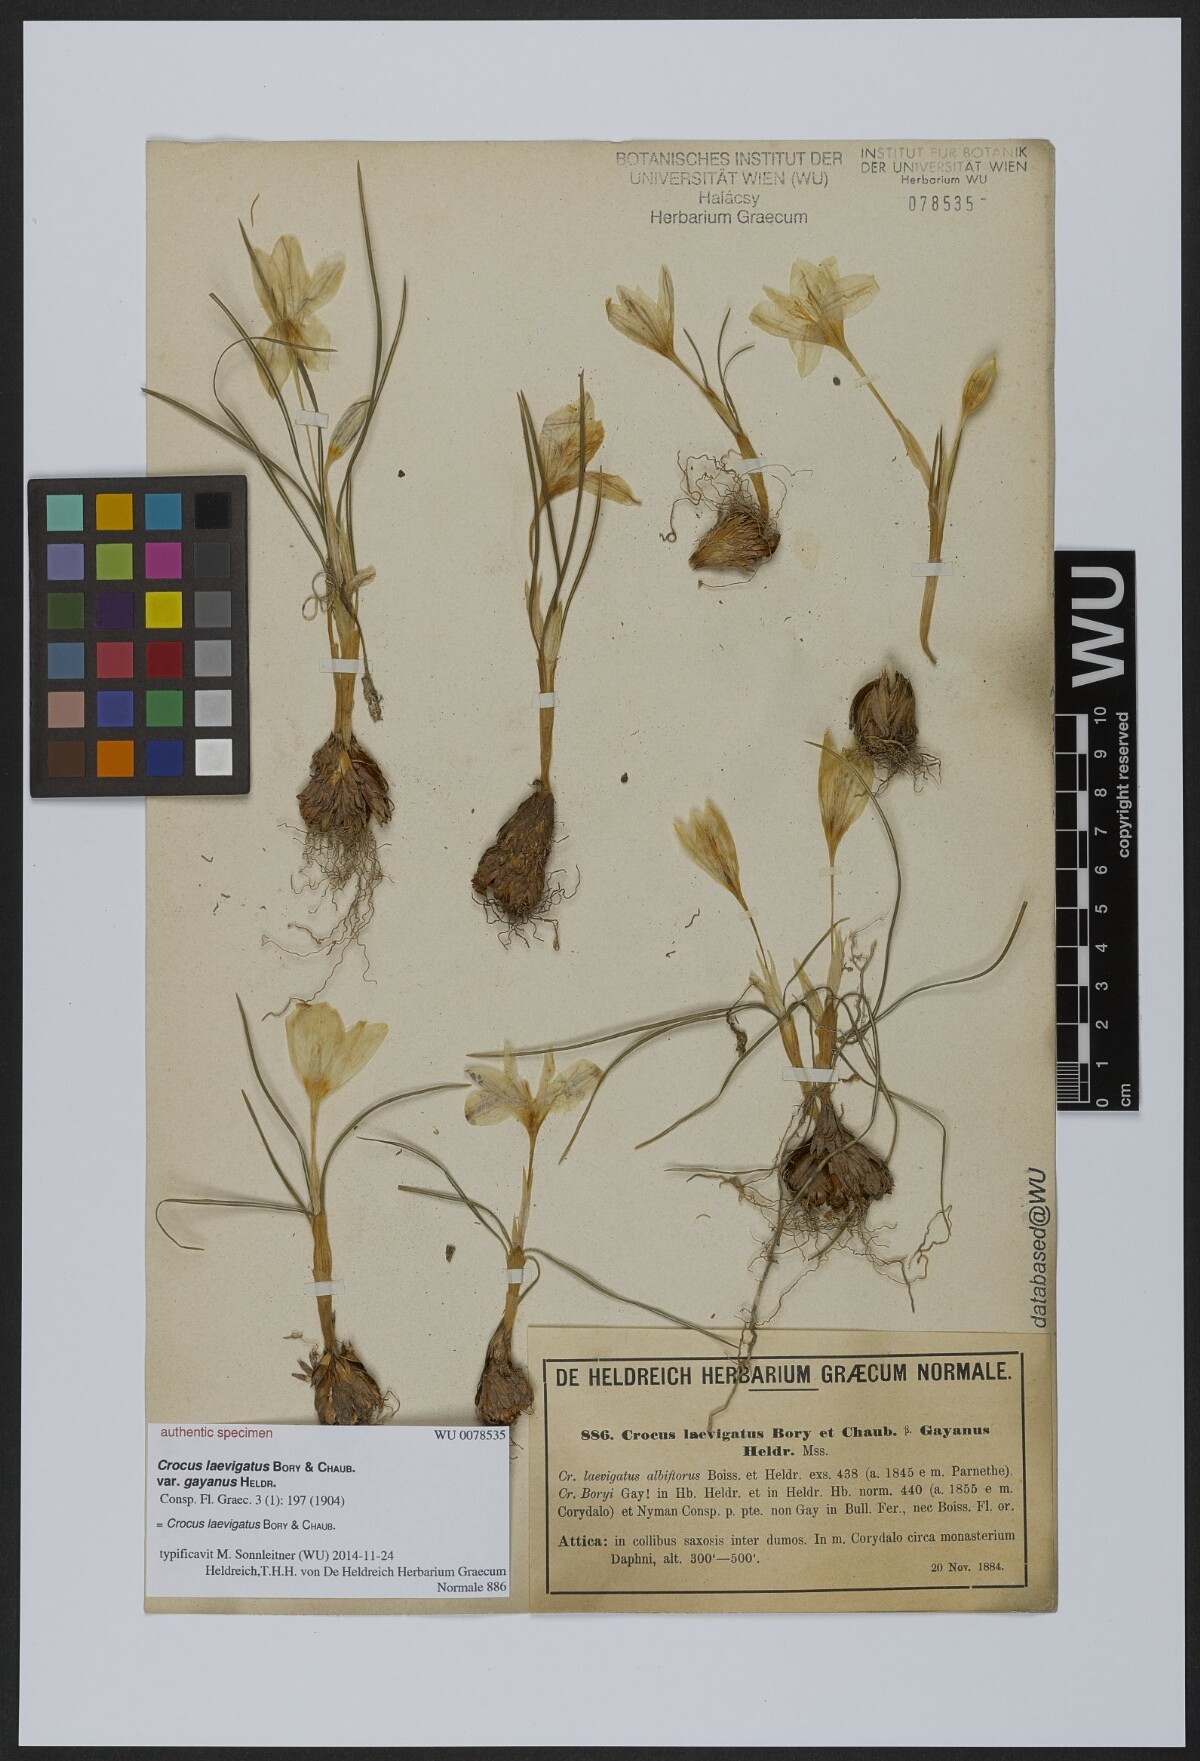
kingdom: Plantae
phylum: Tracheophyta
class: Liliopsida
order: Asparagales
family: Iridaceae
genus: Crocus
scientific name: Crocus laevigatus
